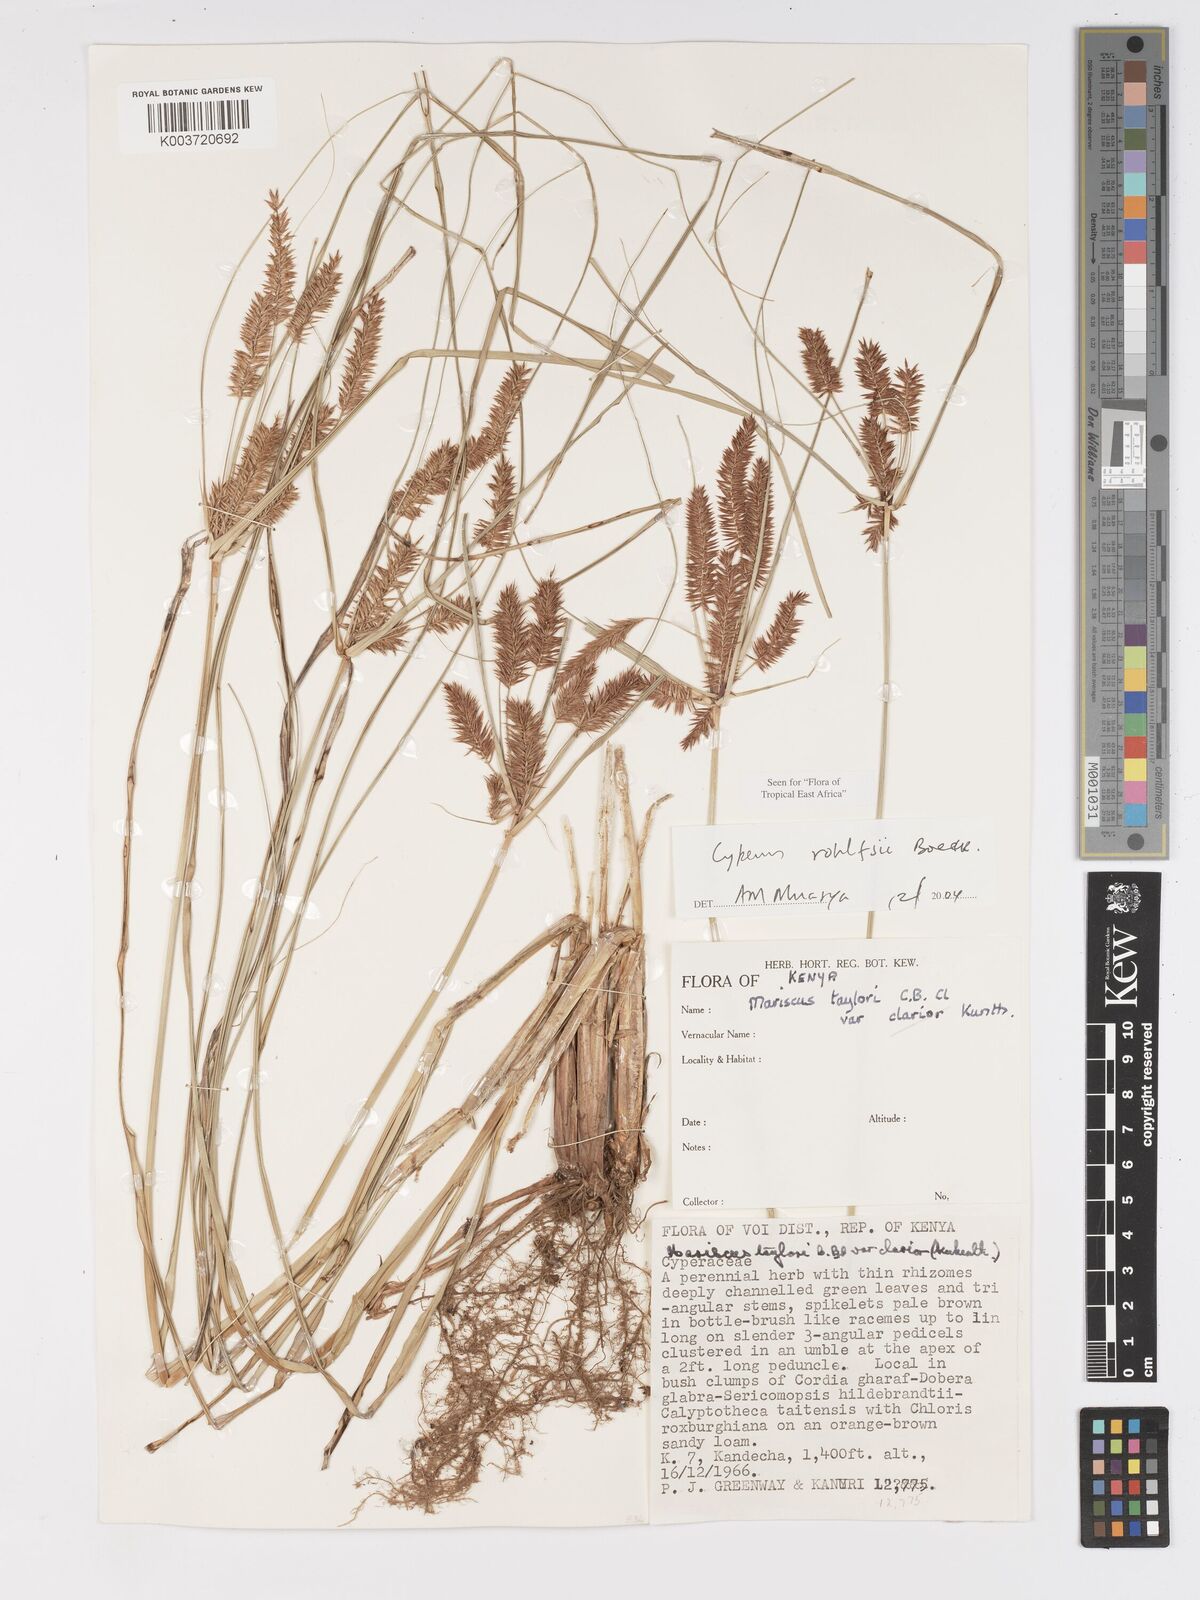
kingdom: Plantae
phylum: Tracheophyta
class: Liliopsida
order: Poales
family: Cyperaceae
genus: Cyperus
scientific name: Cyperus rohlfsii
